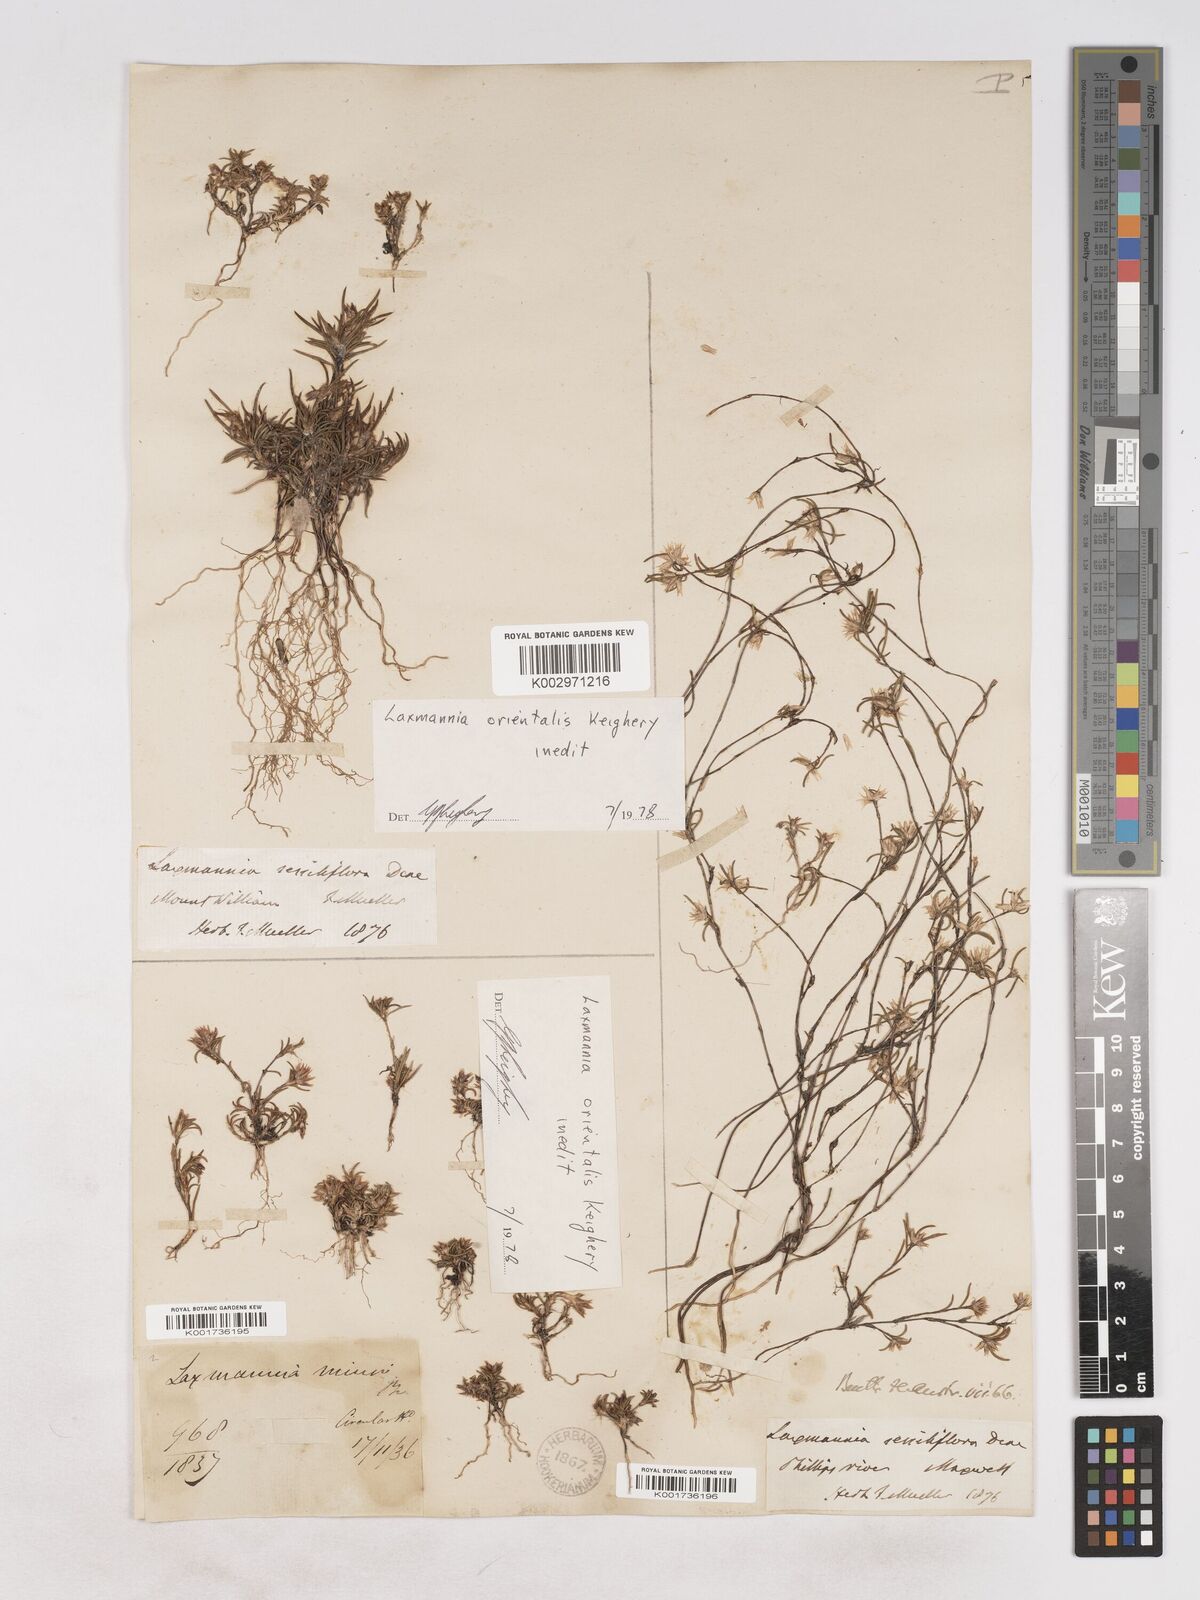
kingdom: Plantae
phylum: Tracheophyta
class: Liliopsida
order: Asparagales
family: Asparagaceae
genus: Laxmannia
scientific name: Laxmannia orientalis
